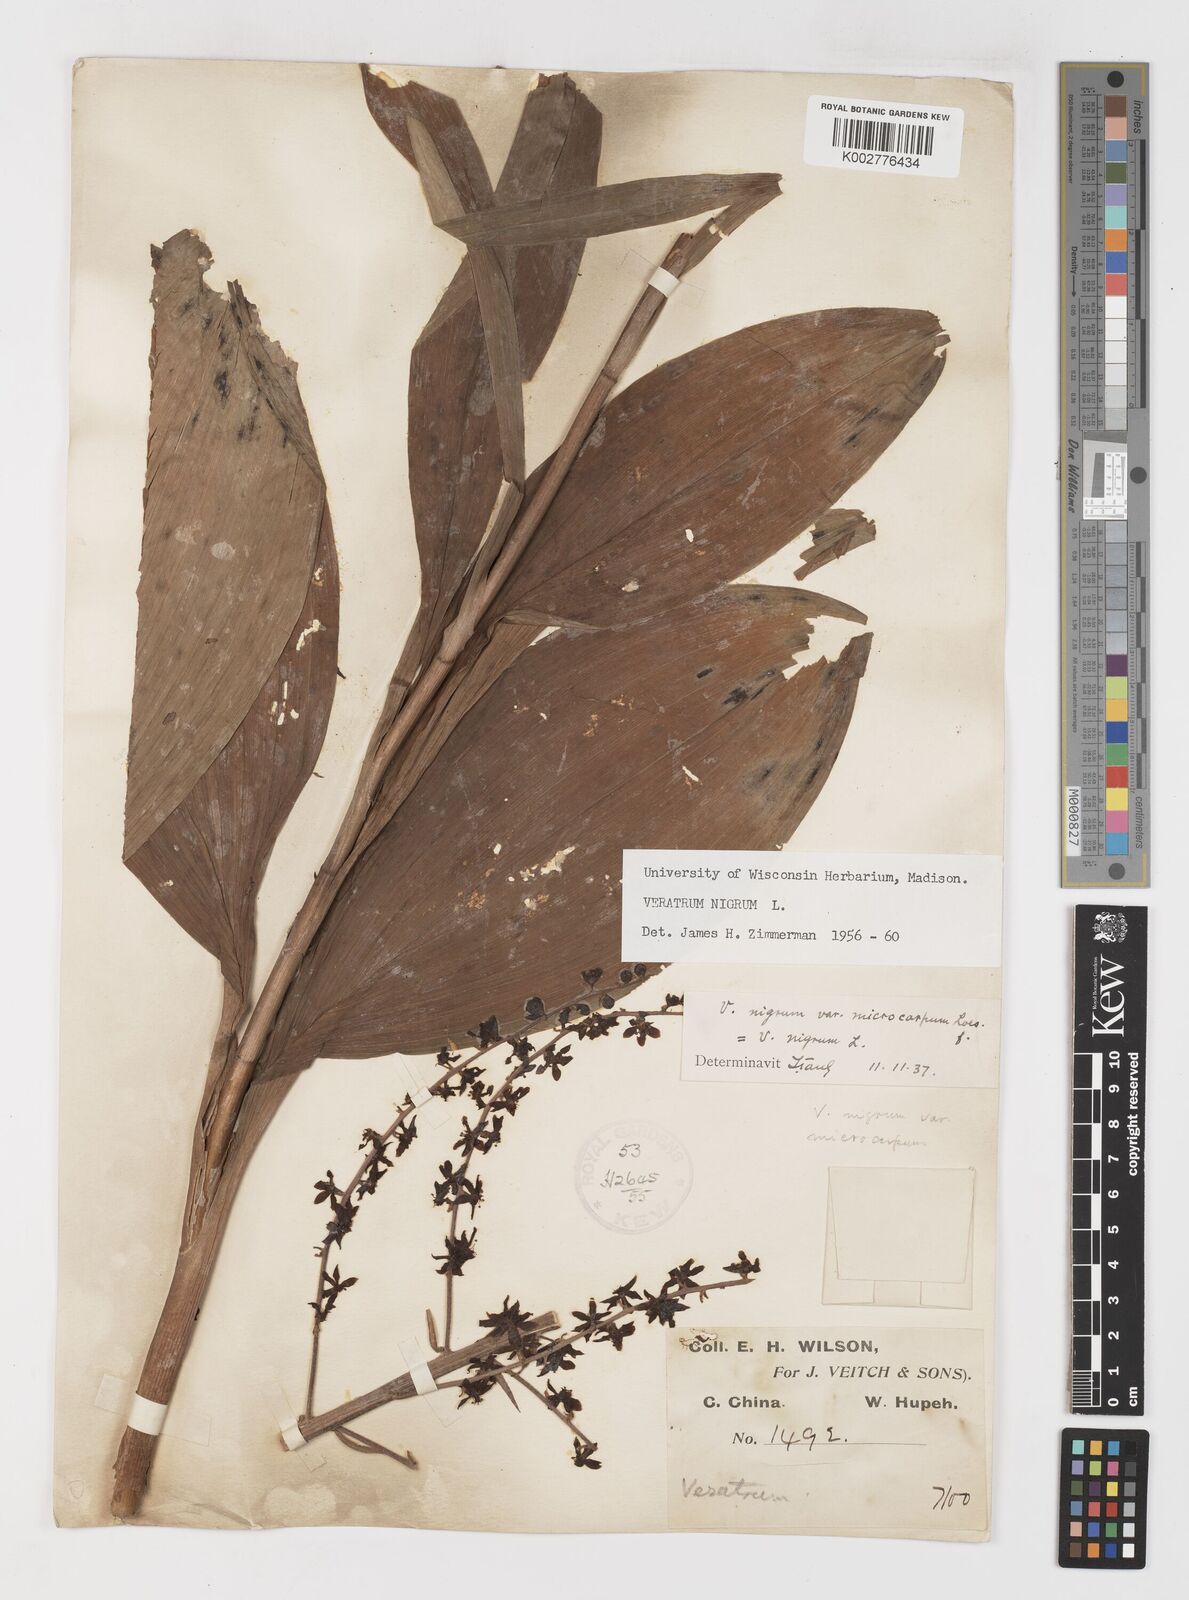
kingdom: Plantae
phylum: Tracheophyta
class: Liliopsida
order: Liliales
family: Melanthiaceae
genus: Veratrum
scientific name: Veratrum nigrum
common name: Black veratrum
